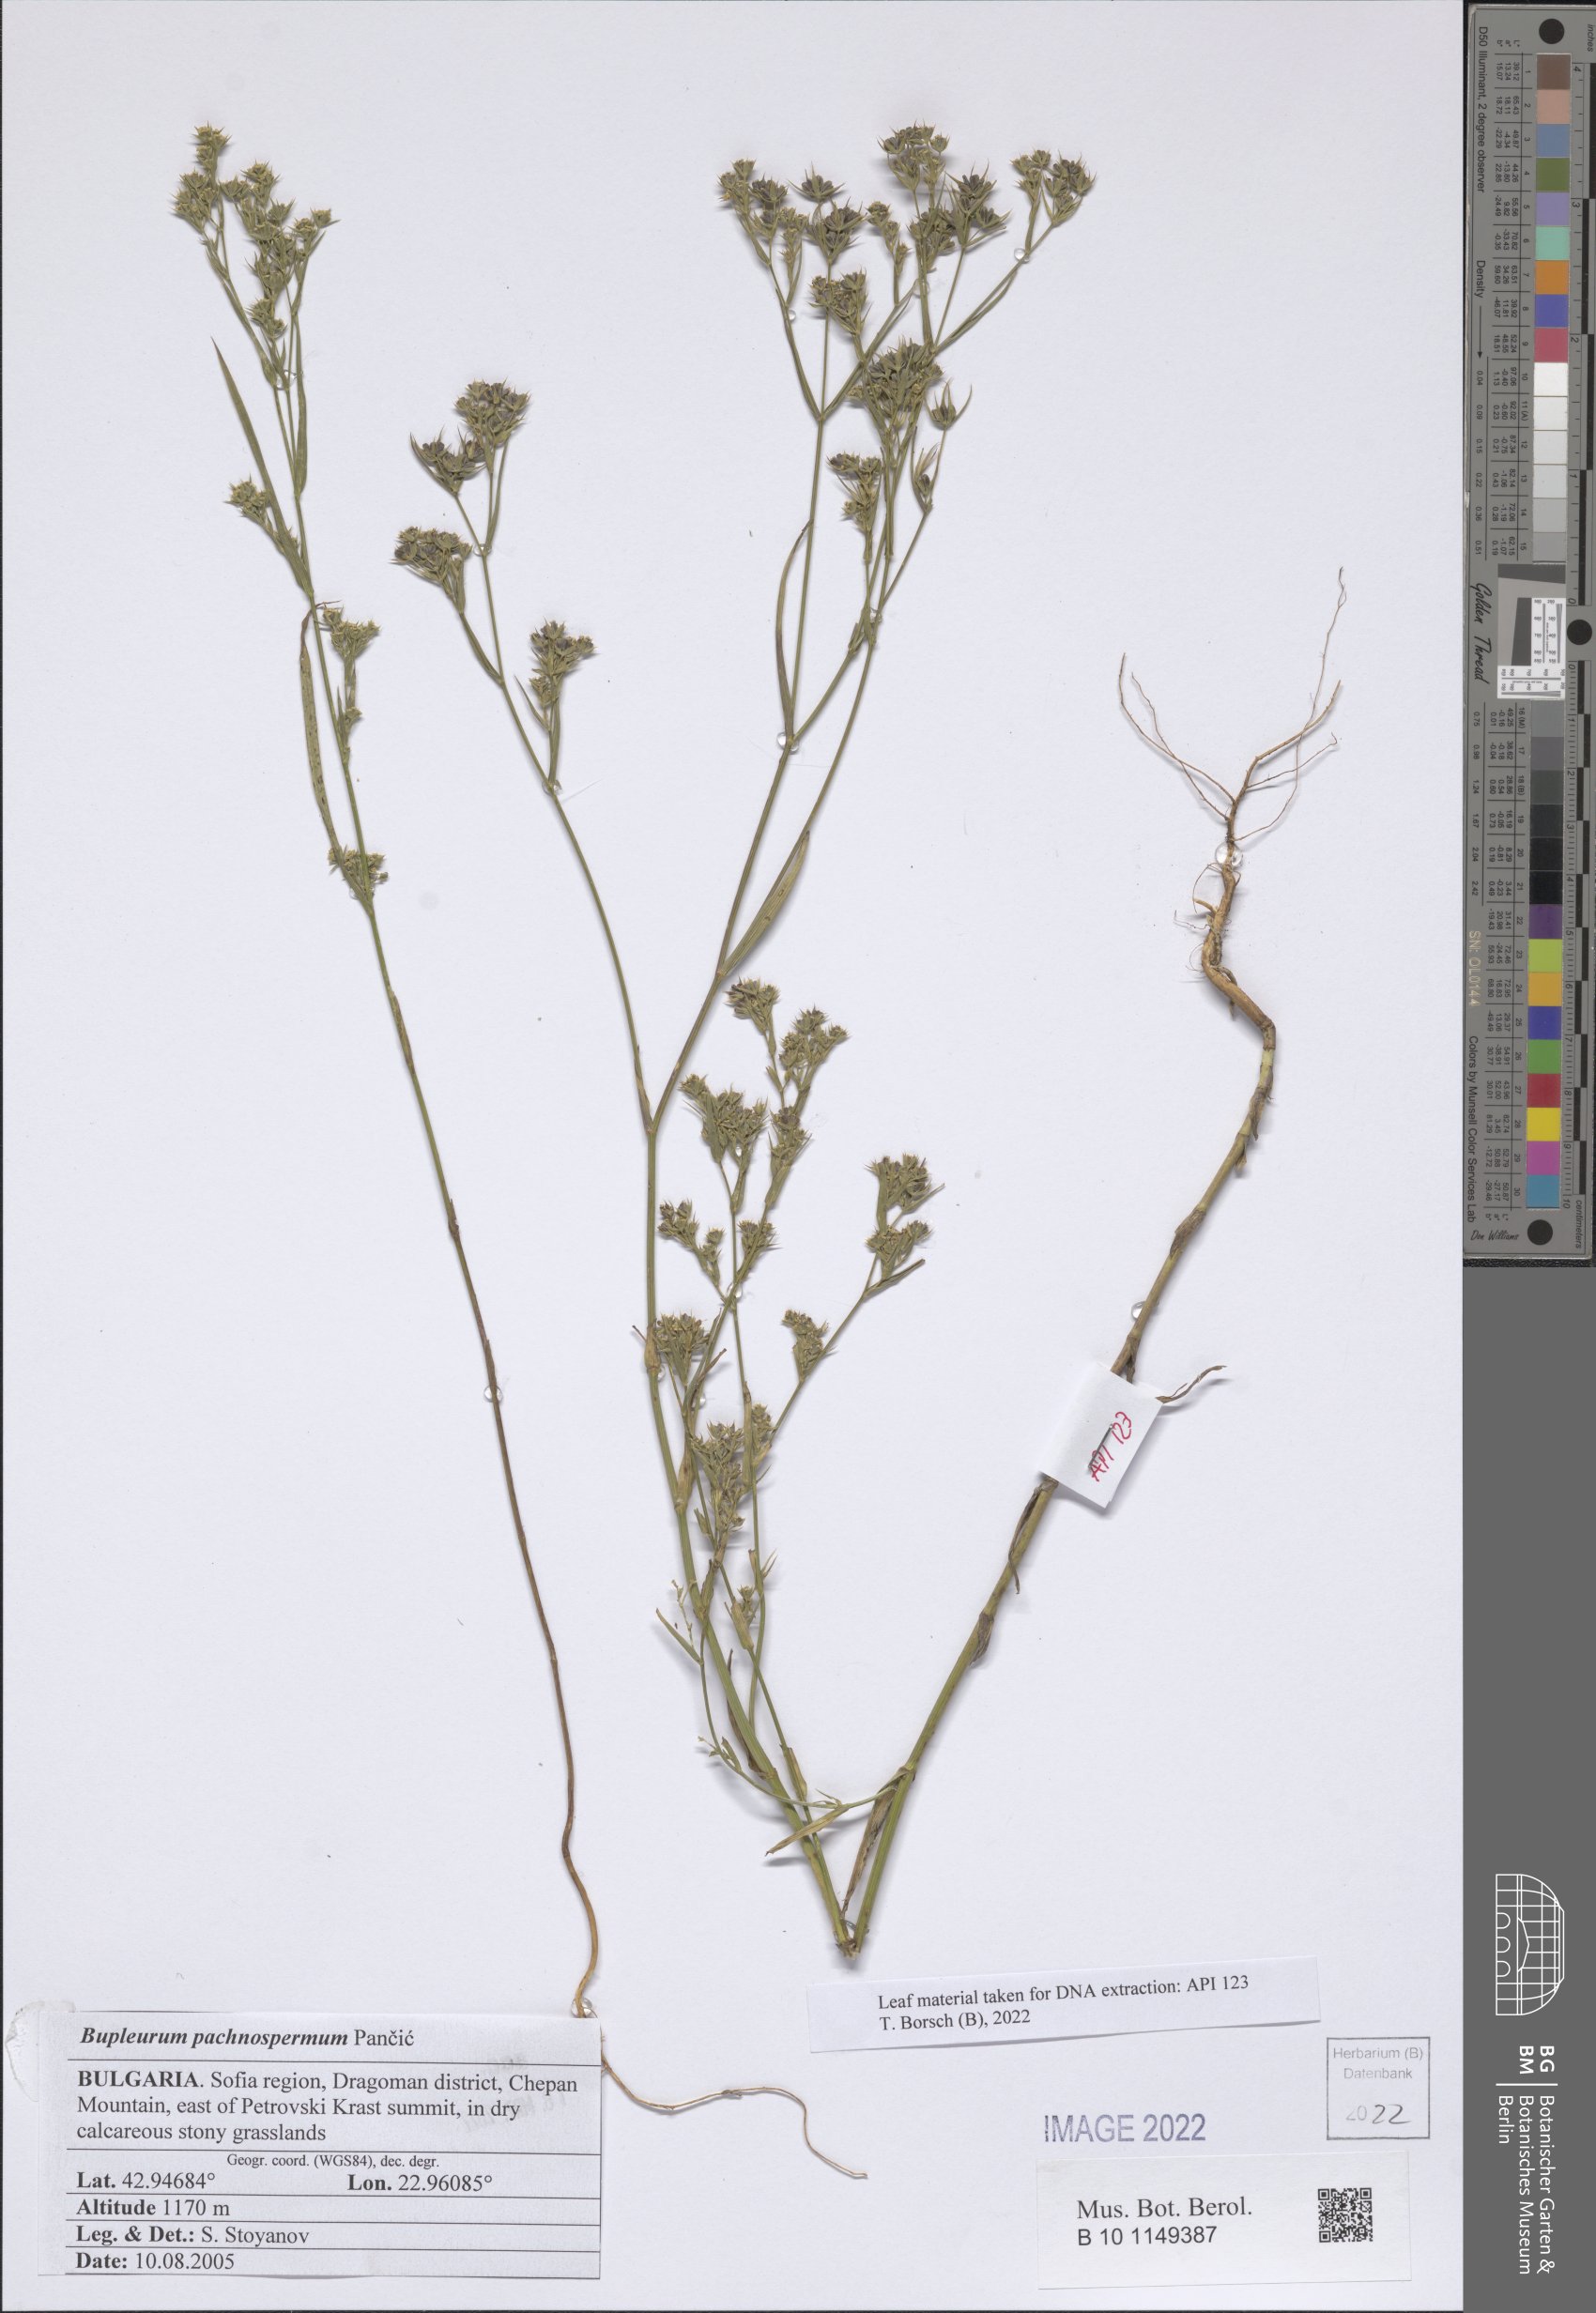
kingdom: Plantae
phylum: Tracheophyta
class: Magnoliopsida
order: Apiales
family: Apiaceae
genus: Bupleurum
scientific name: Bupleurum pachnospermum
